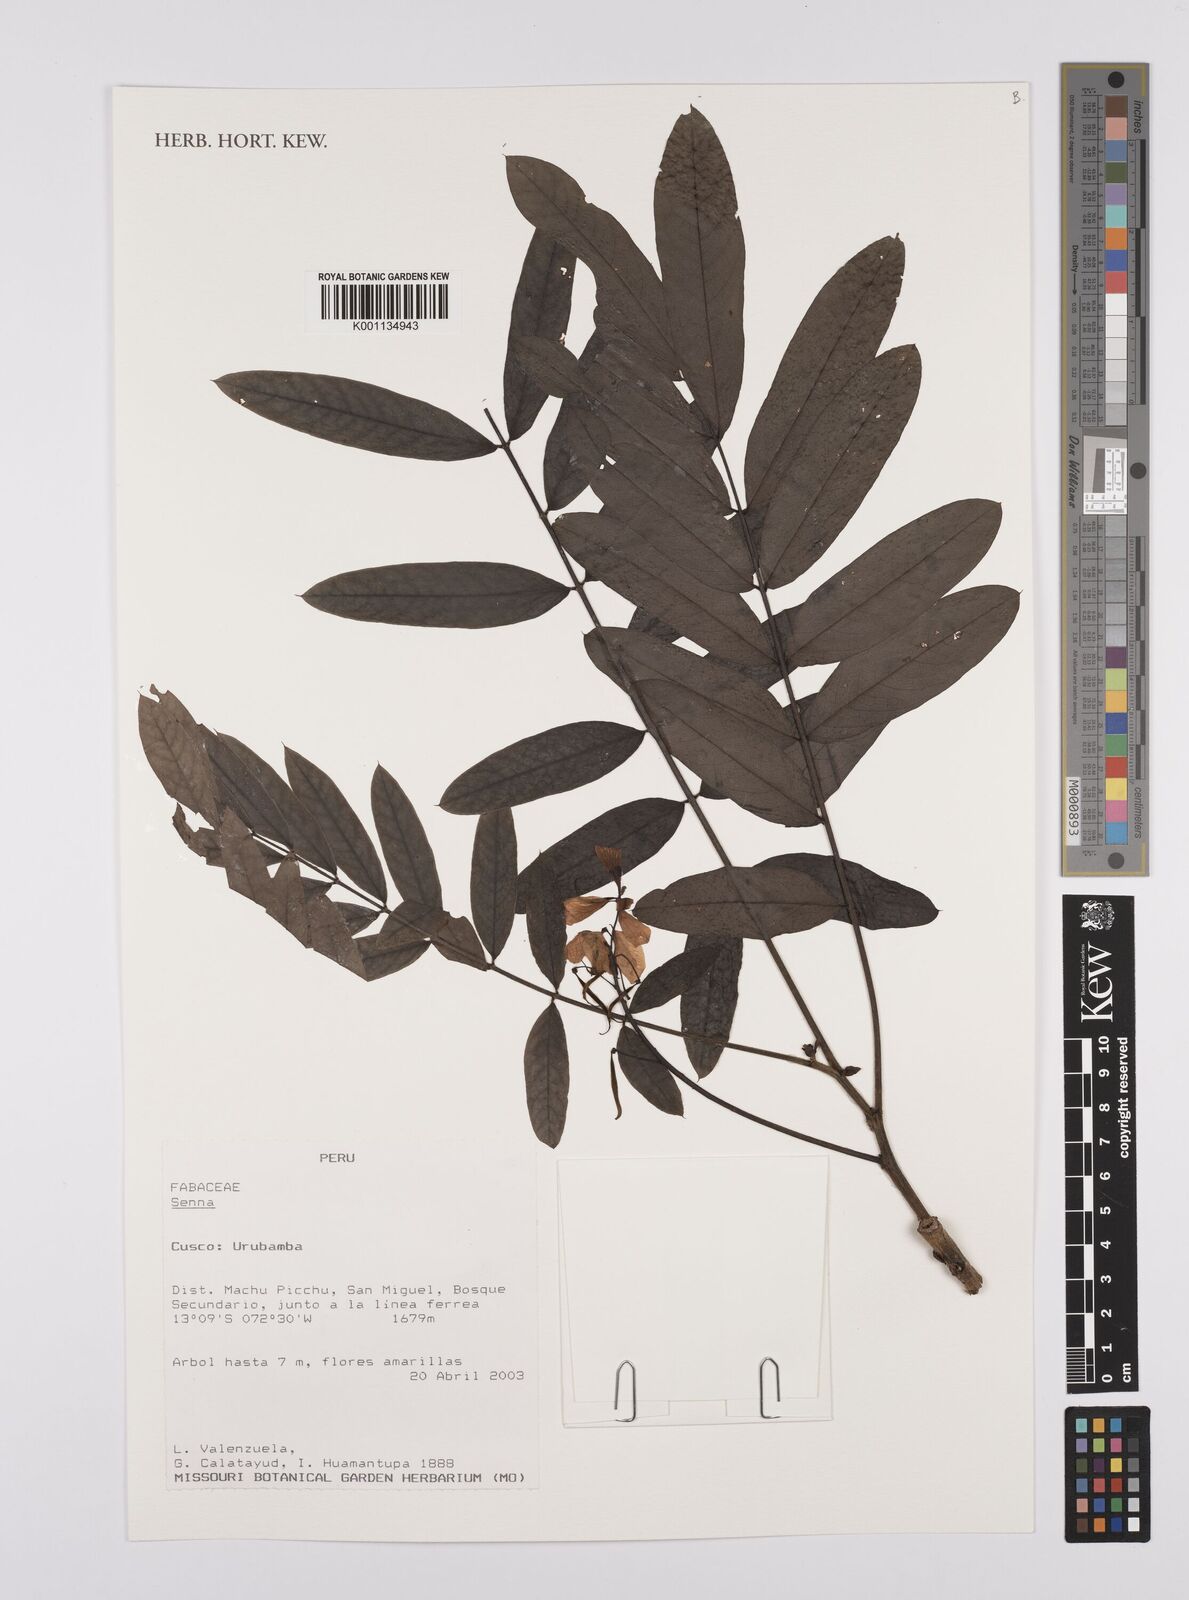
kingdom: Plantae
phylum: Tracheophyta
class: Magnoliopsida
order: Fabales
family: Fabaceae
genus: Senna
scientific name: Senna
